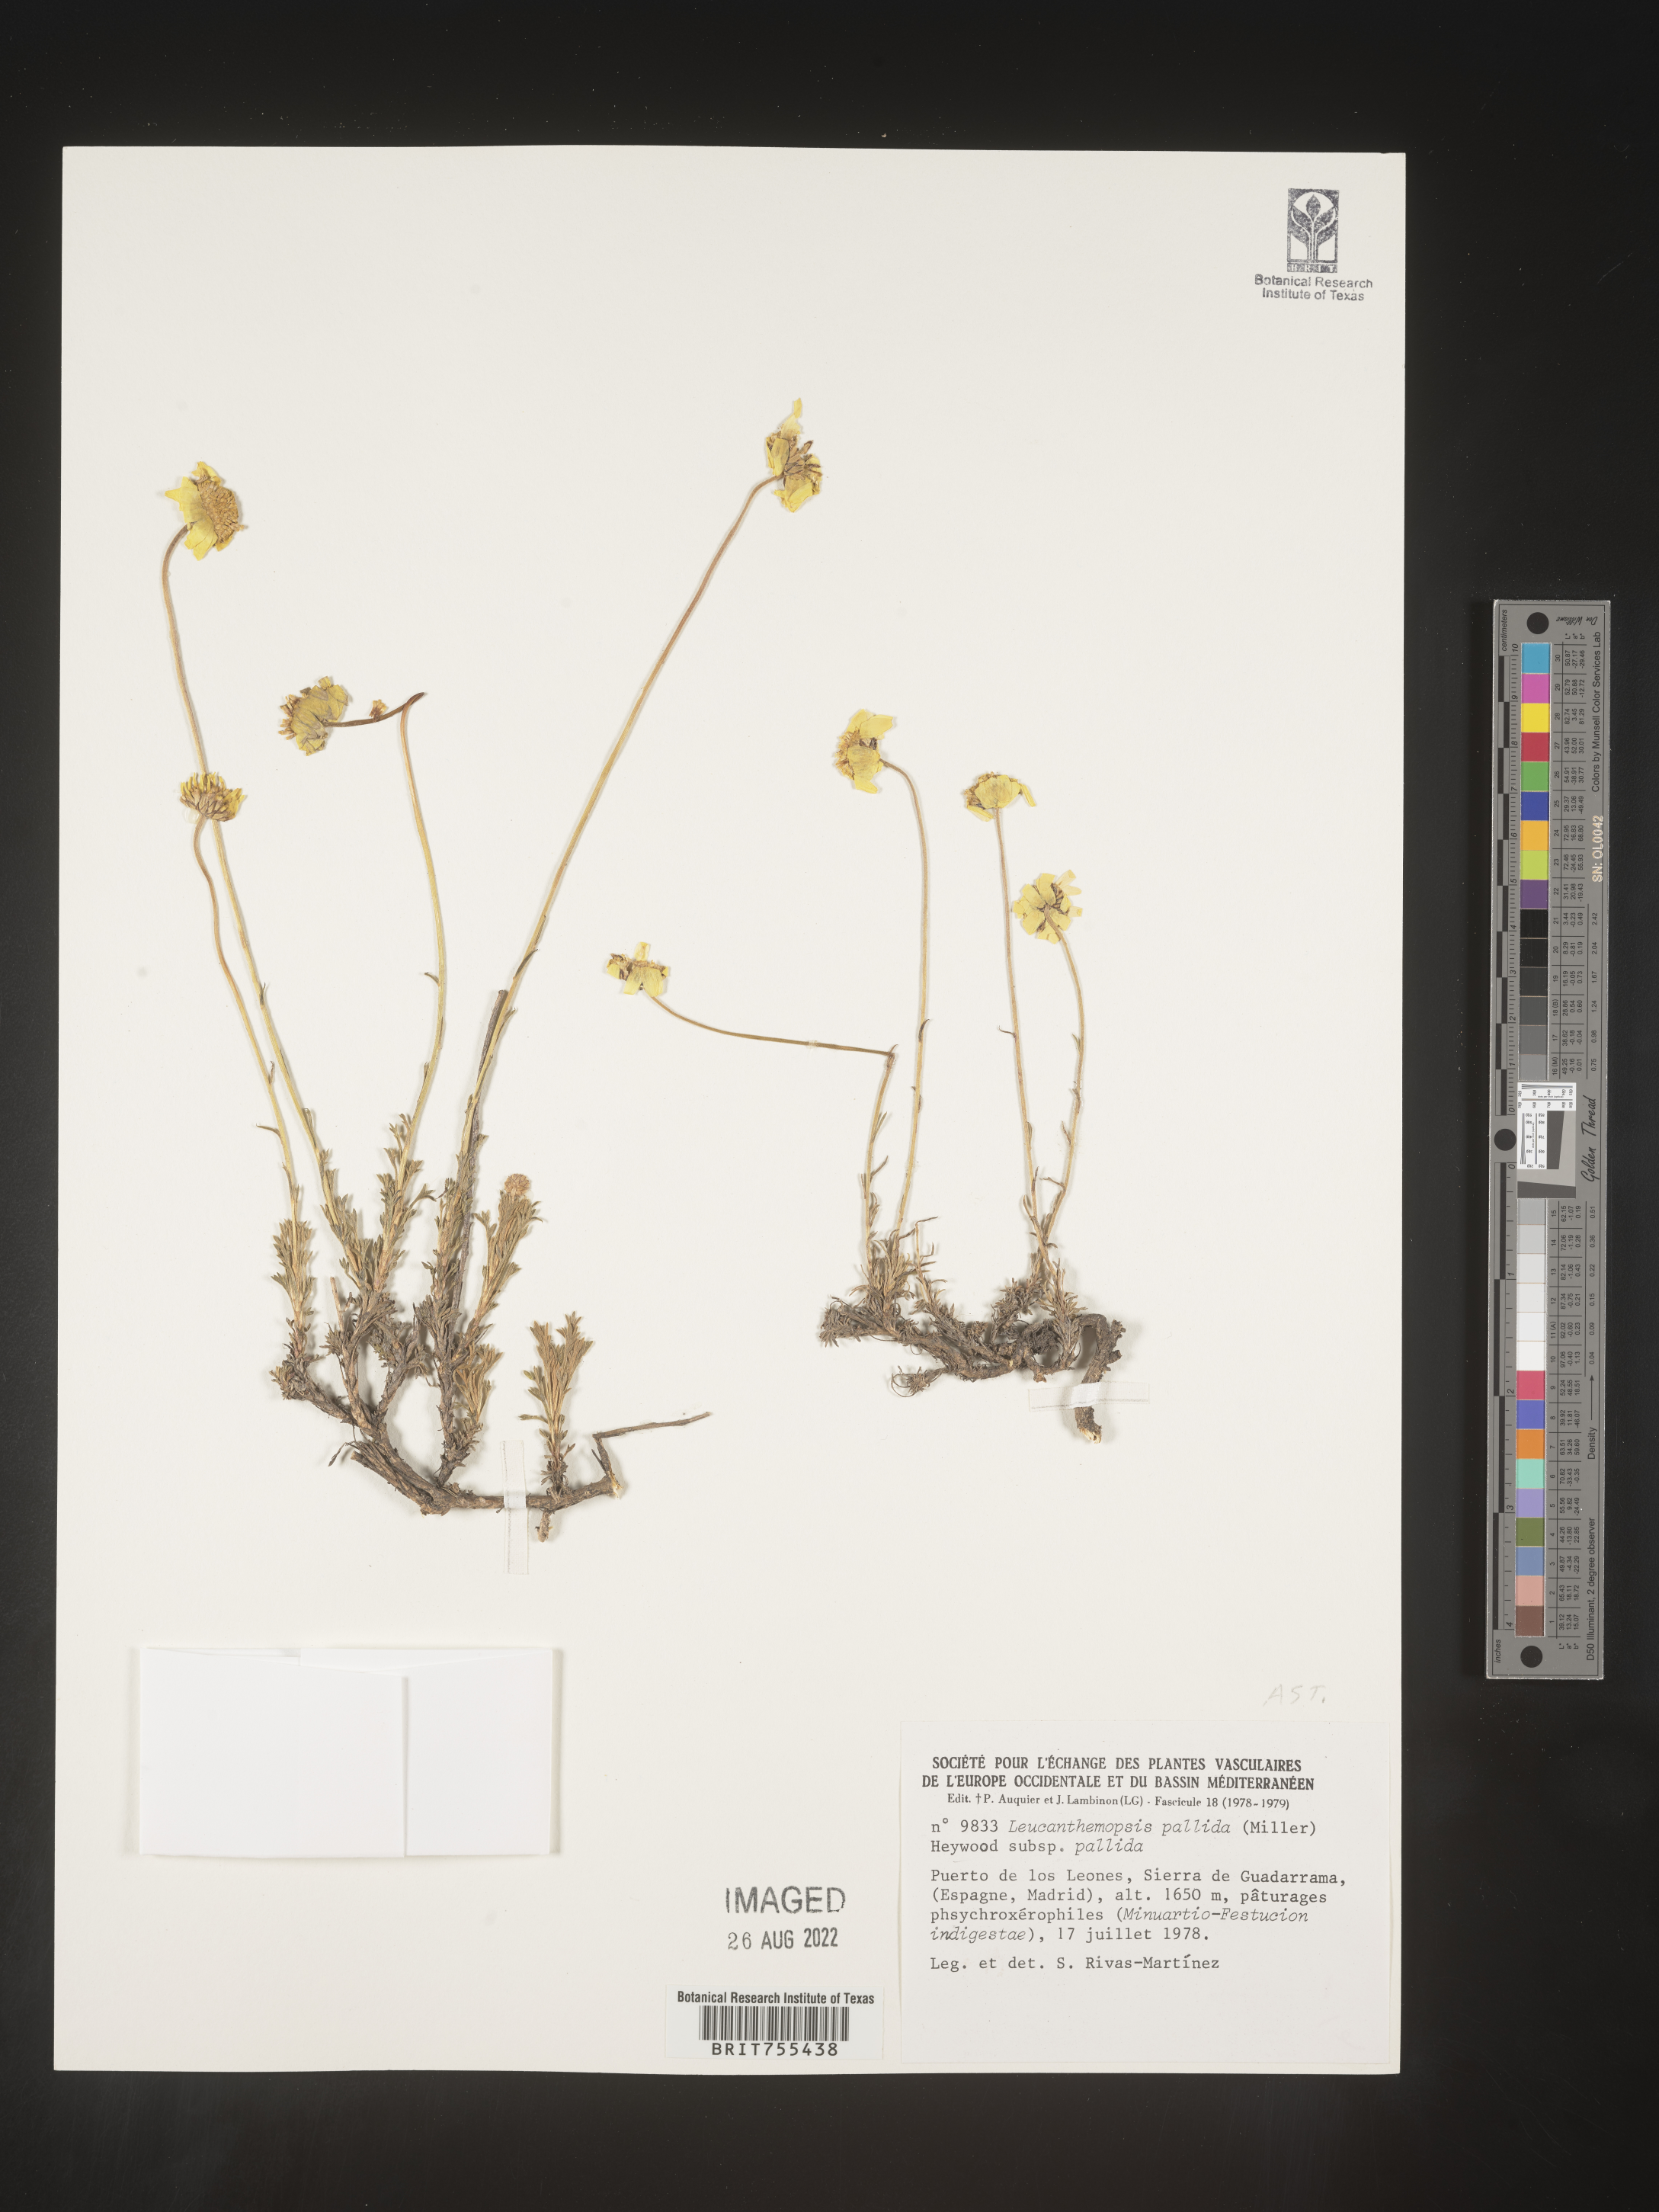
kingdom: Plantae
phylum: Tracheophyta
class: Magnoliopsida
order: Asterales
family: Asteraceae
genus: Tanacetum
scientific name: Tanacetum
